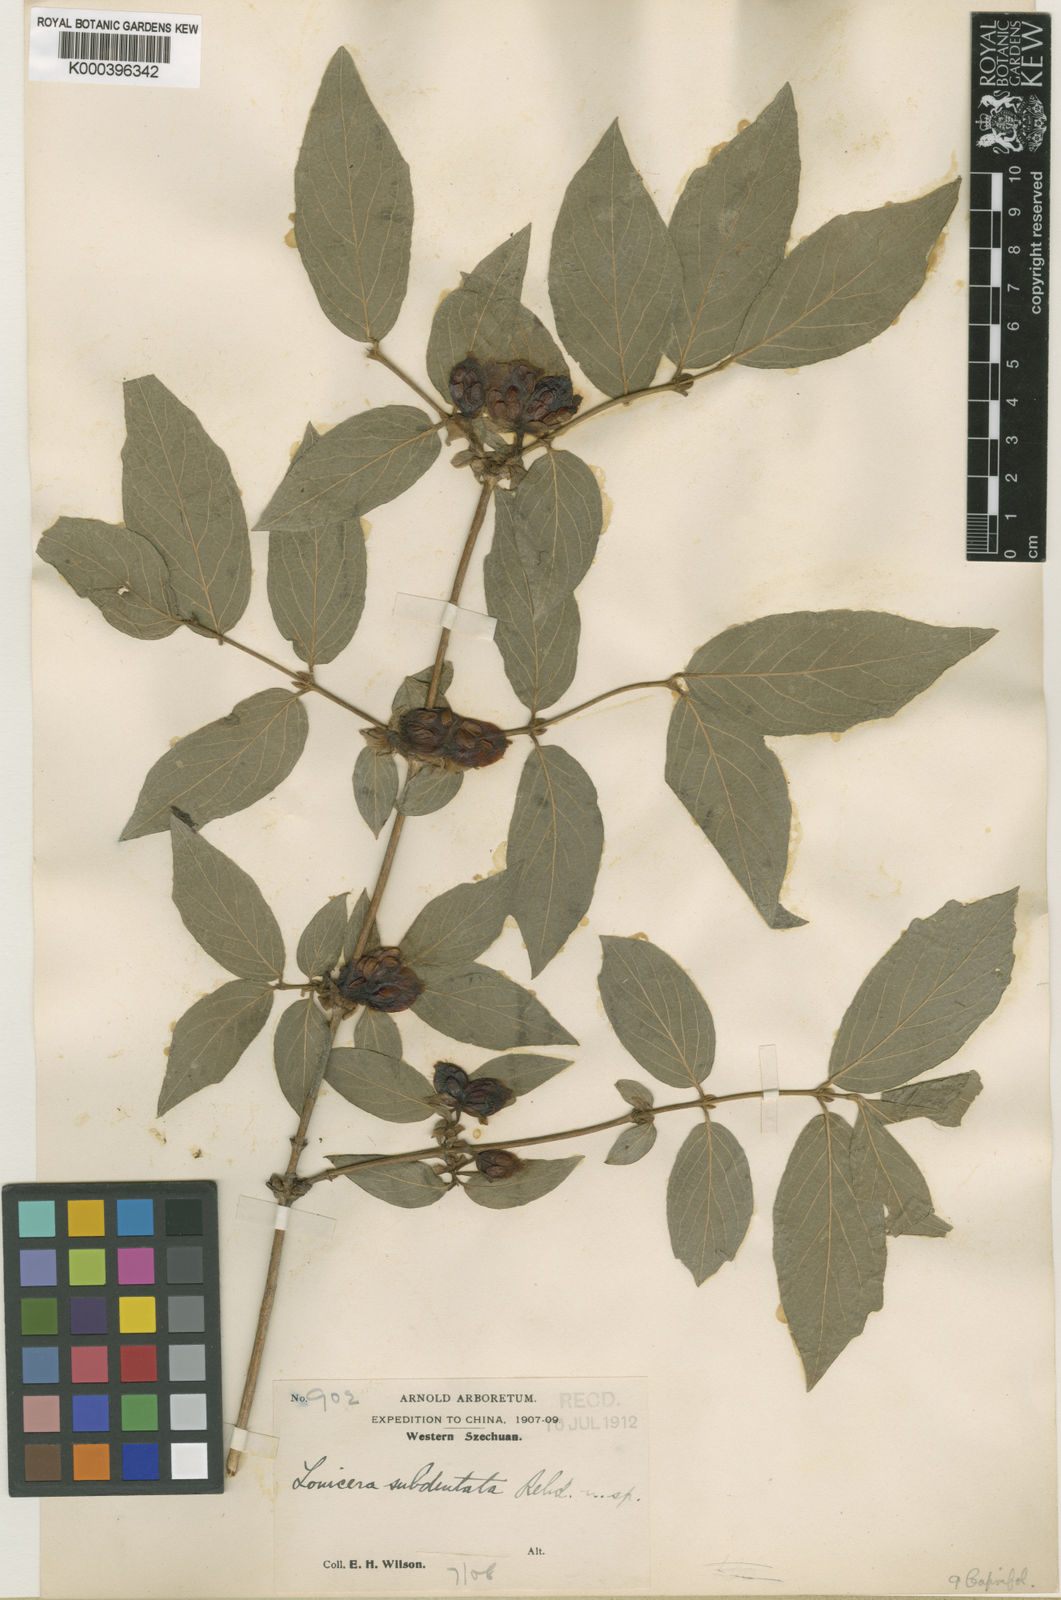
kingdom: Plantae
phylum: Tracheophyta
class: Magnoliopsida
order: Dipsacales
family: Caprifoliaceae
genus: Lonicera
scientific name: Lonicera setifera
